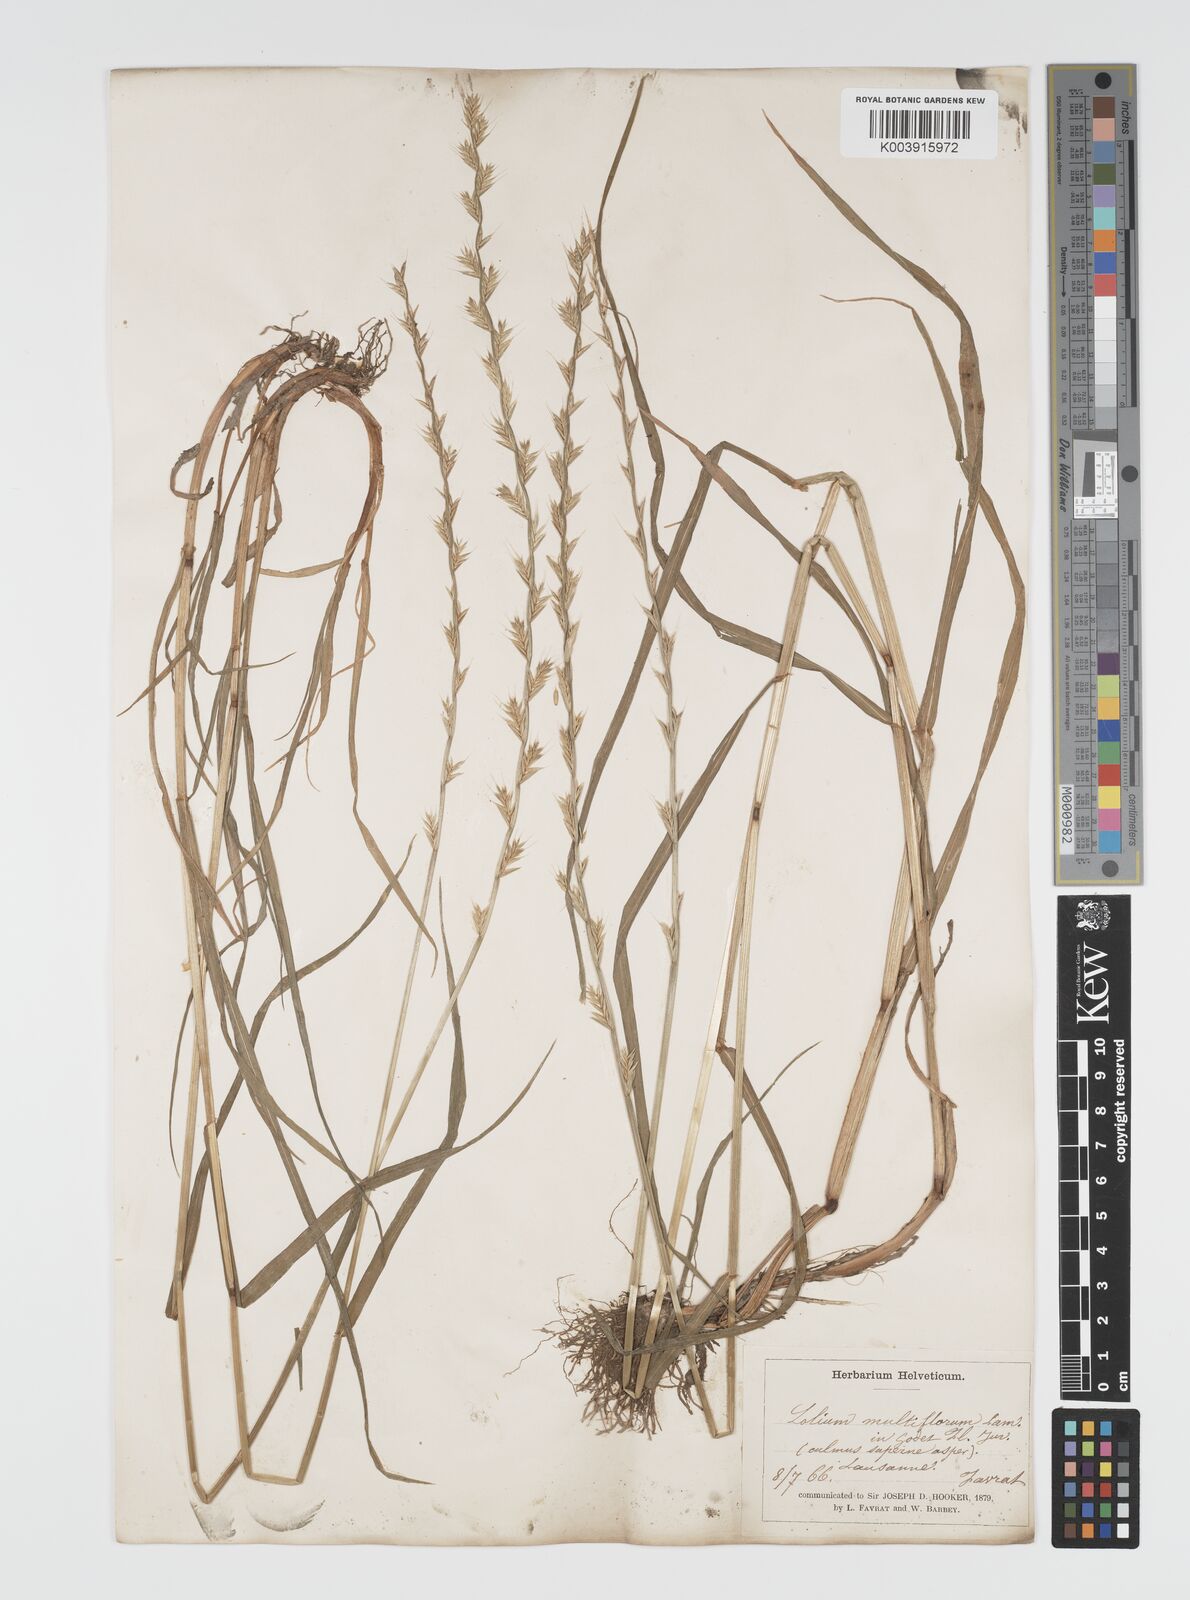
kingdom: Plantae
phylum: Tracheophyta
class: Liliopsida
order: Poales
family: Poaceae
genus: Lolium
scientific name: Lolium multiflorum
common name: Annual ryegrass
